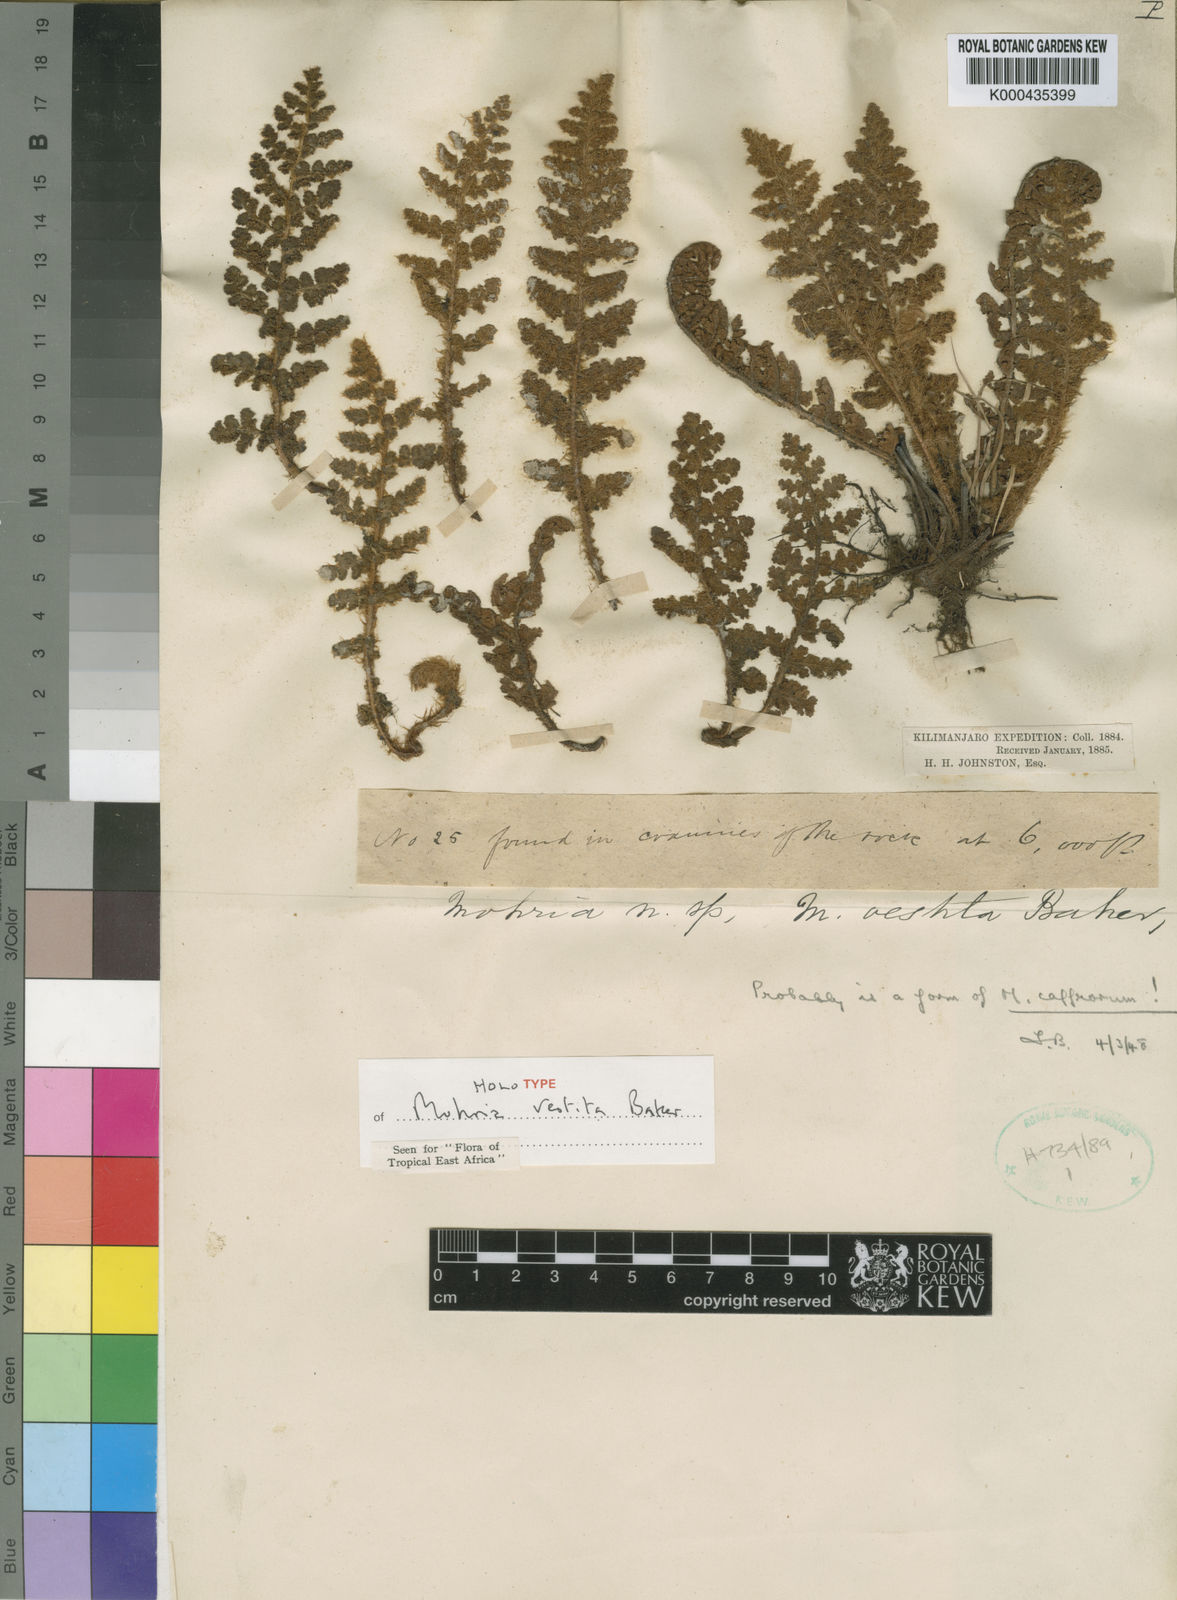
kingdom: Plantae
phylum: Tracheophyta
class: Polypodiopsida
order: Schizaeales
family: Anemiaceae
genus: Anemia
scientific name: Anemia vestita
